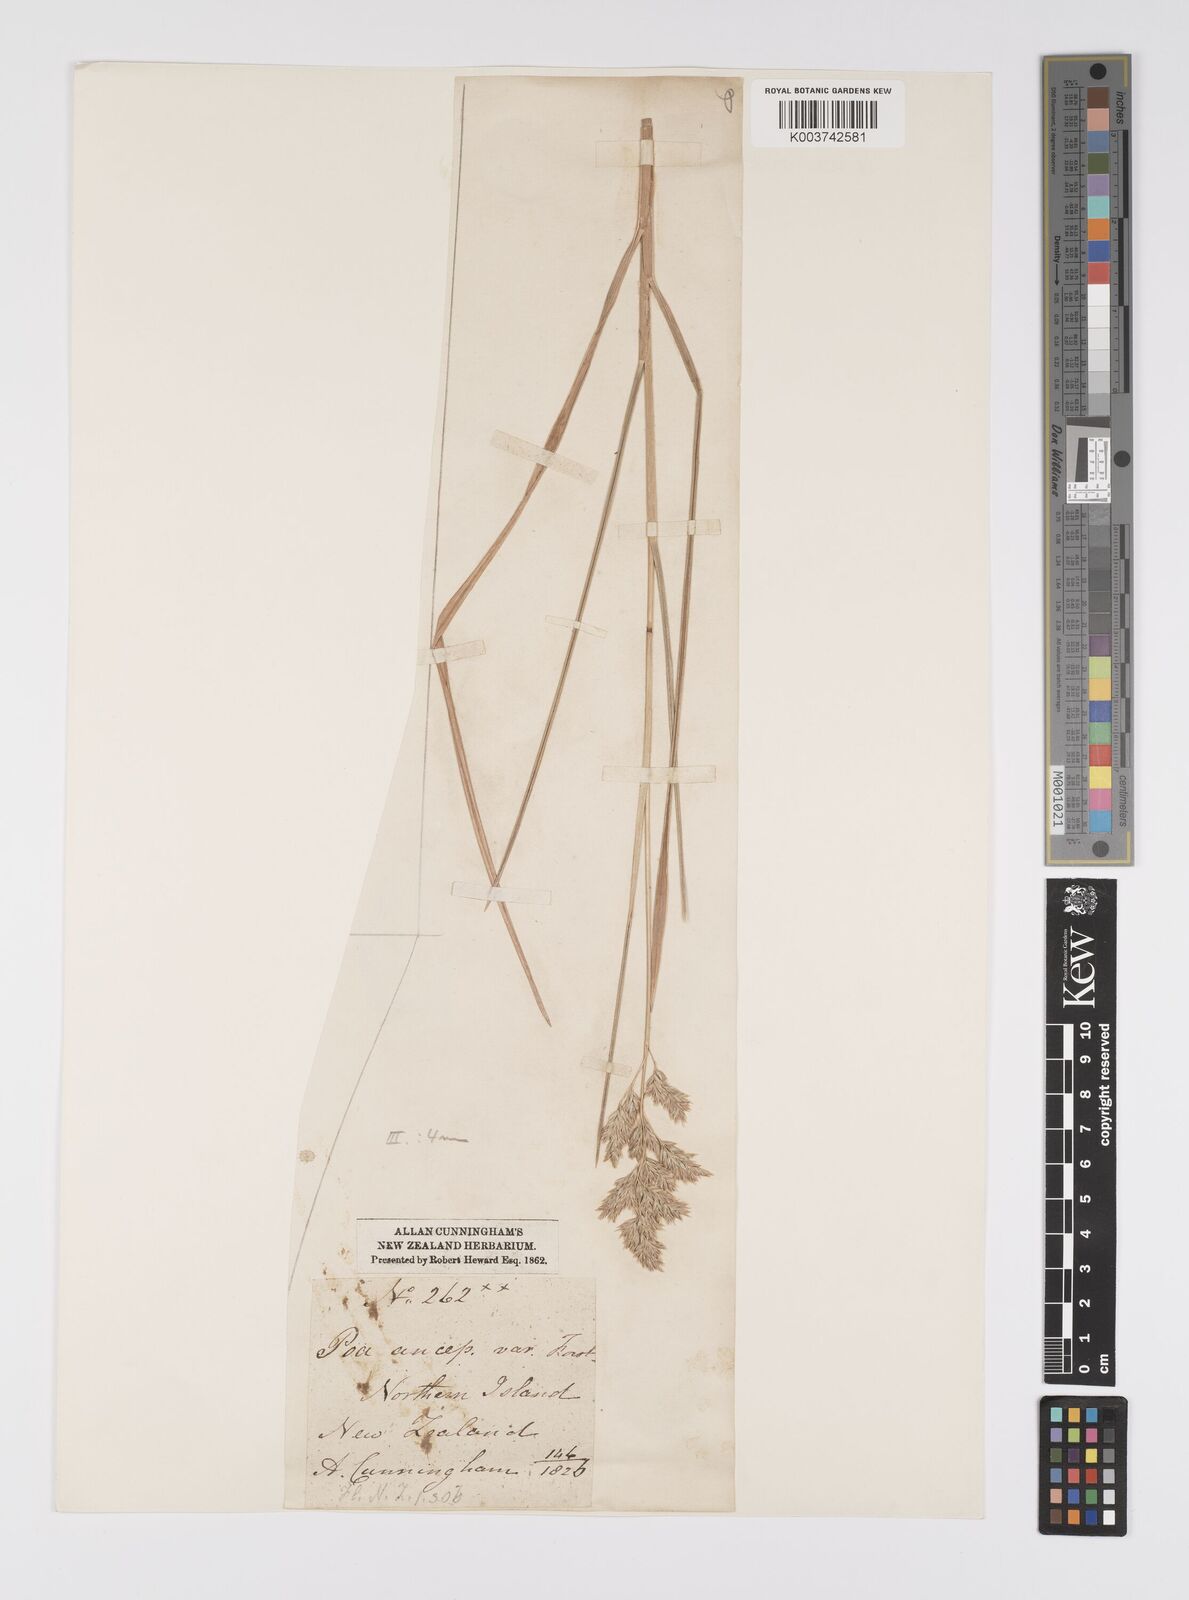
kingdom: Plantae
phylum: Tracheophyta
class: Liliopsida
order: Poales
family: Poaceae
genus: Poa
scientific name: Poa anceps
